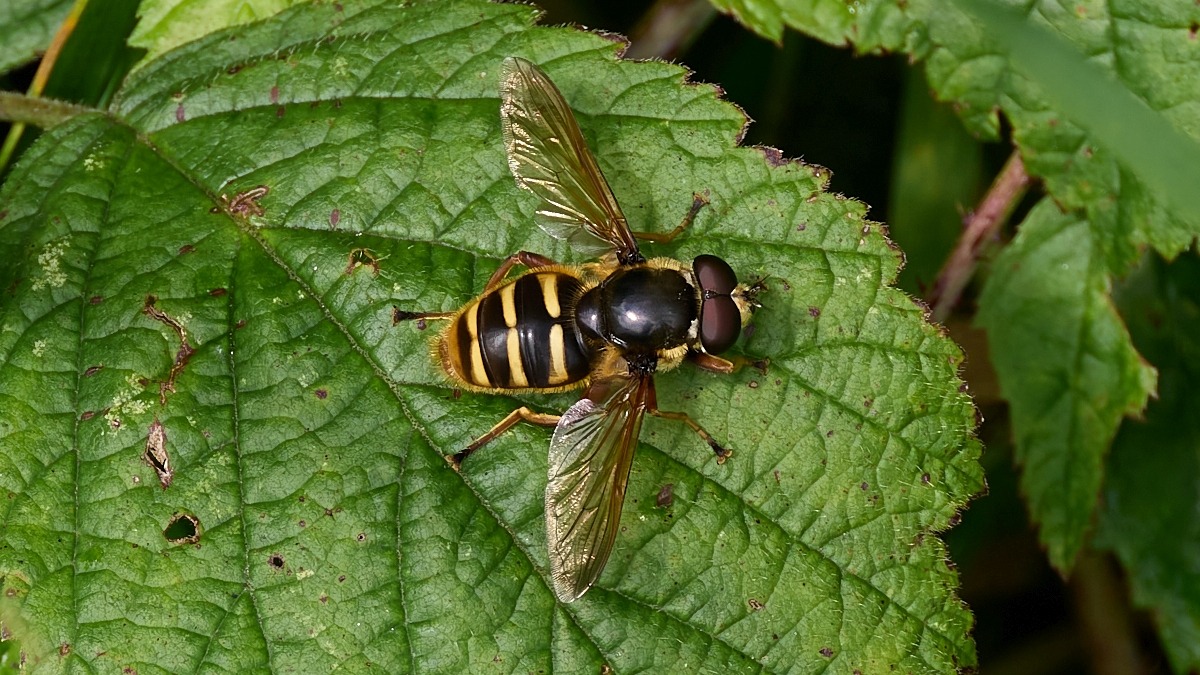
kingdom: Animalia
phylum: Arthropoda
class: Insecta
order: Diptera
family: Syrphidae
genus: Sericomyia
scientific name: Sericomyia silentis
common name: Tørve-silkesvirreflue
